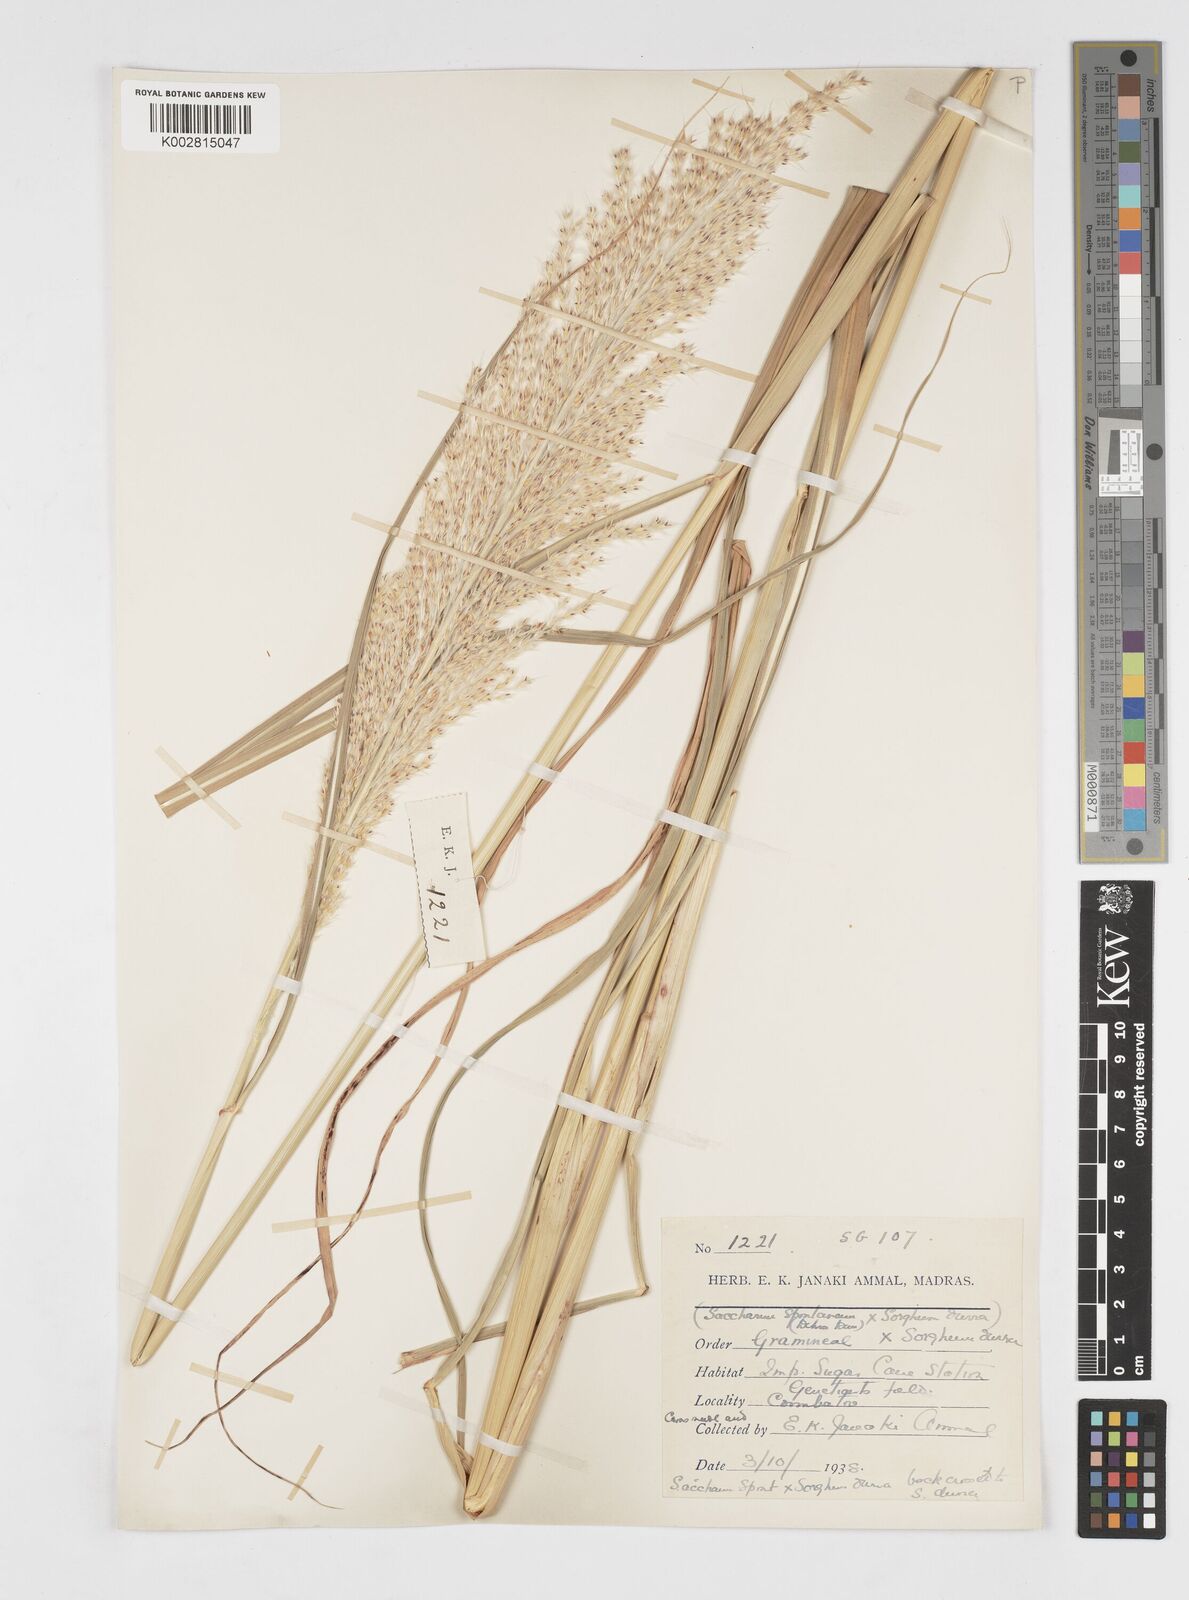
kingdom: Plantae
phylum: Tracheophyta
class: Liliopsida
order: Poales
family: Poaceae
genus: Saccharum
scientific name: Saccharum
